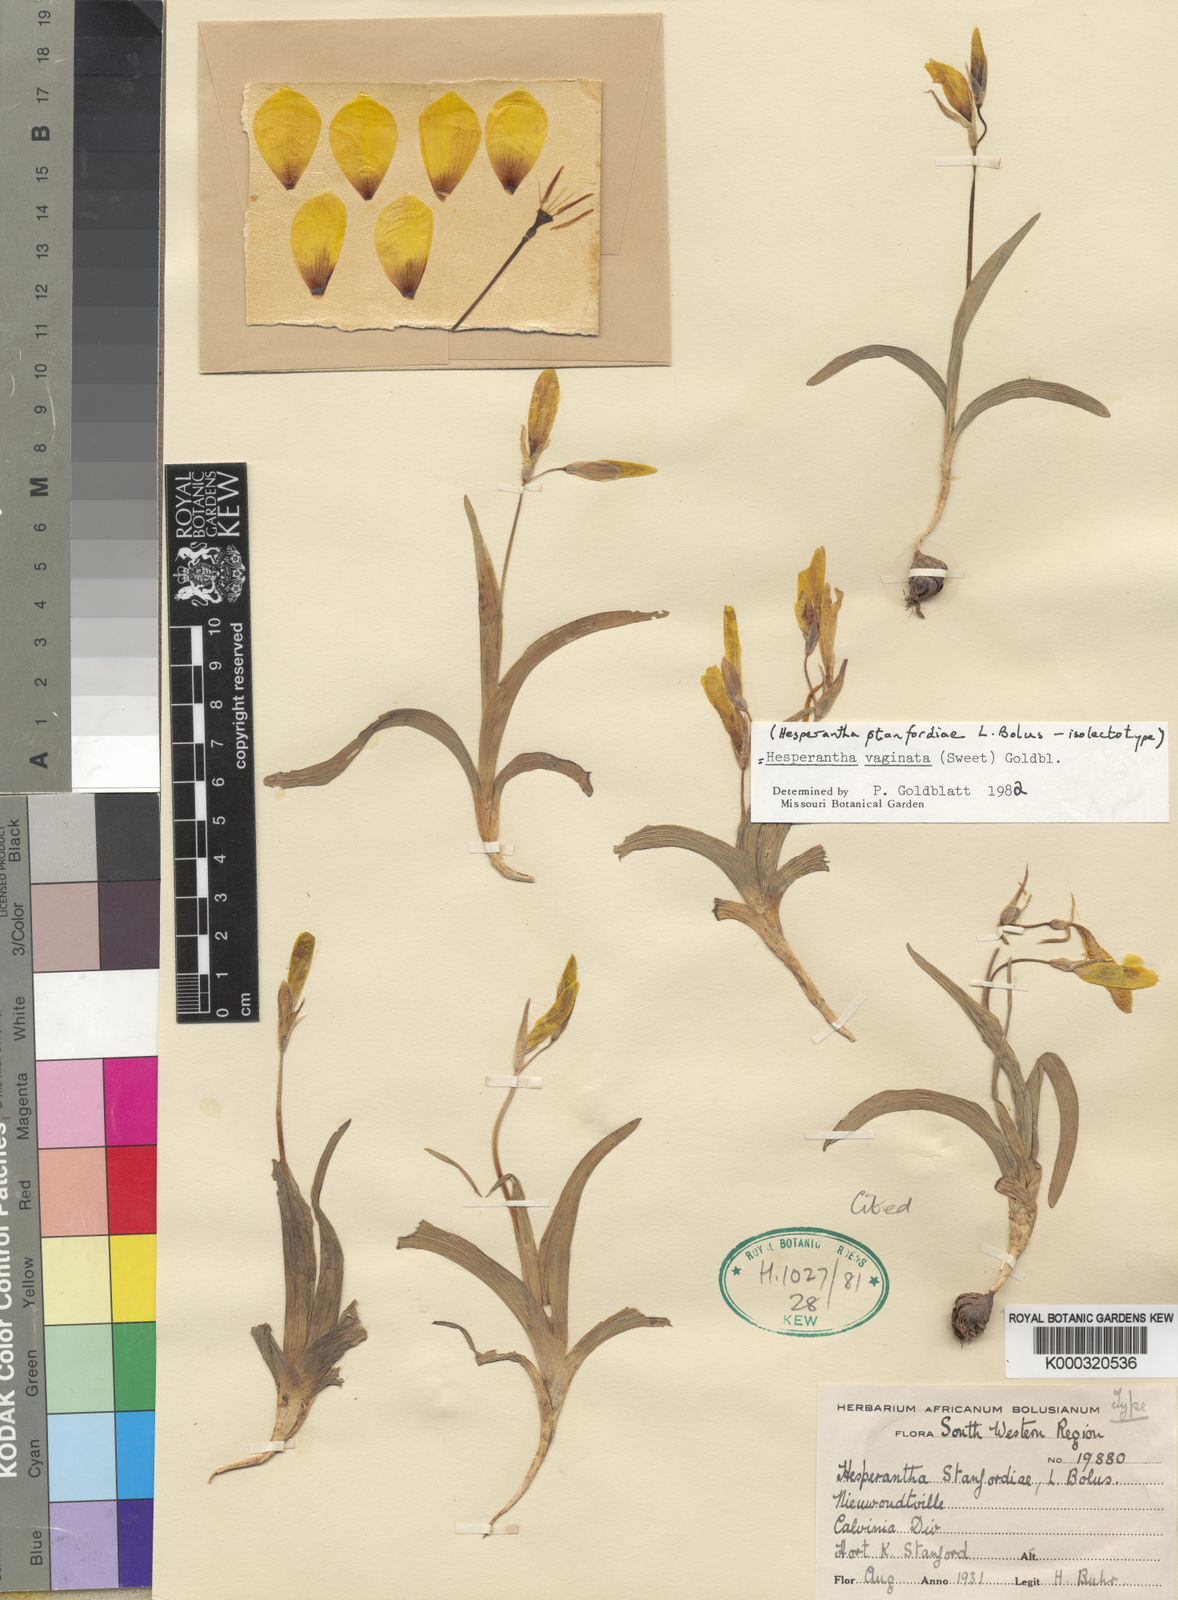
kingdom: Plantae
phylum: Tracheophyta
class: Liliopsida
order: Asparagales
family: Iridaceae
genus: Hesperantha
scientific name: Hesperantha vaginata
